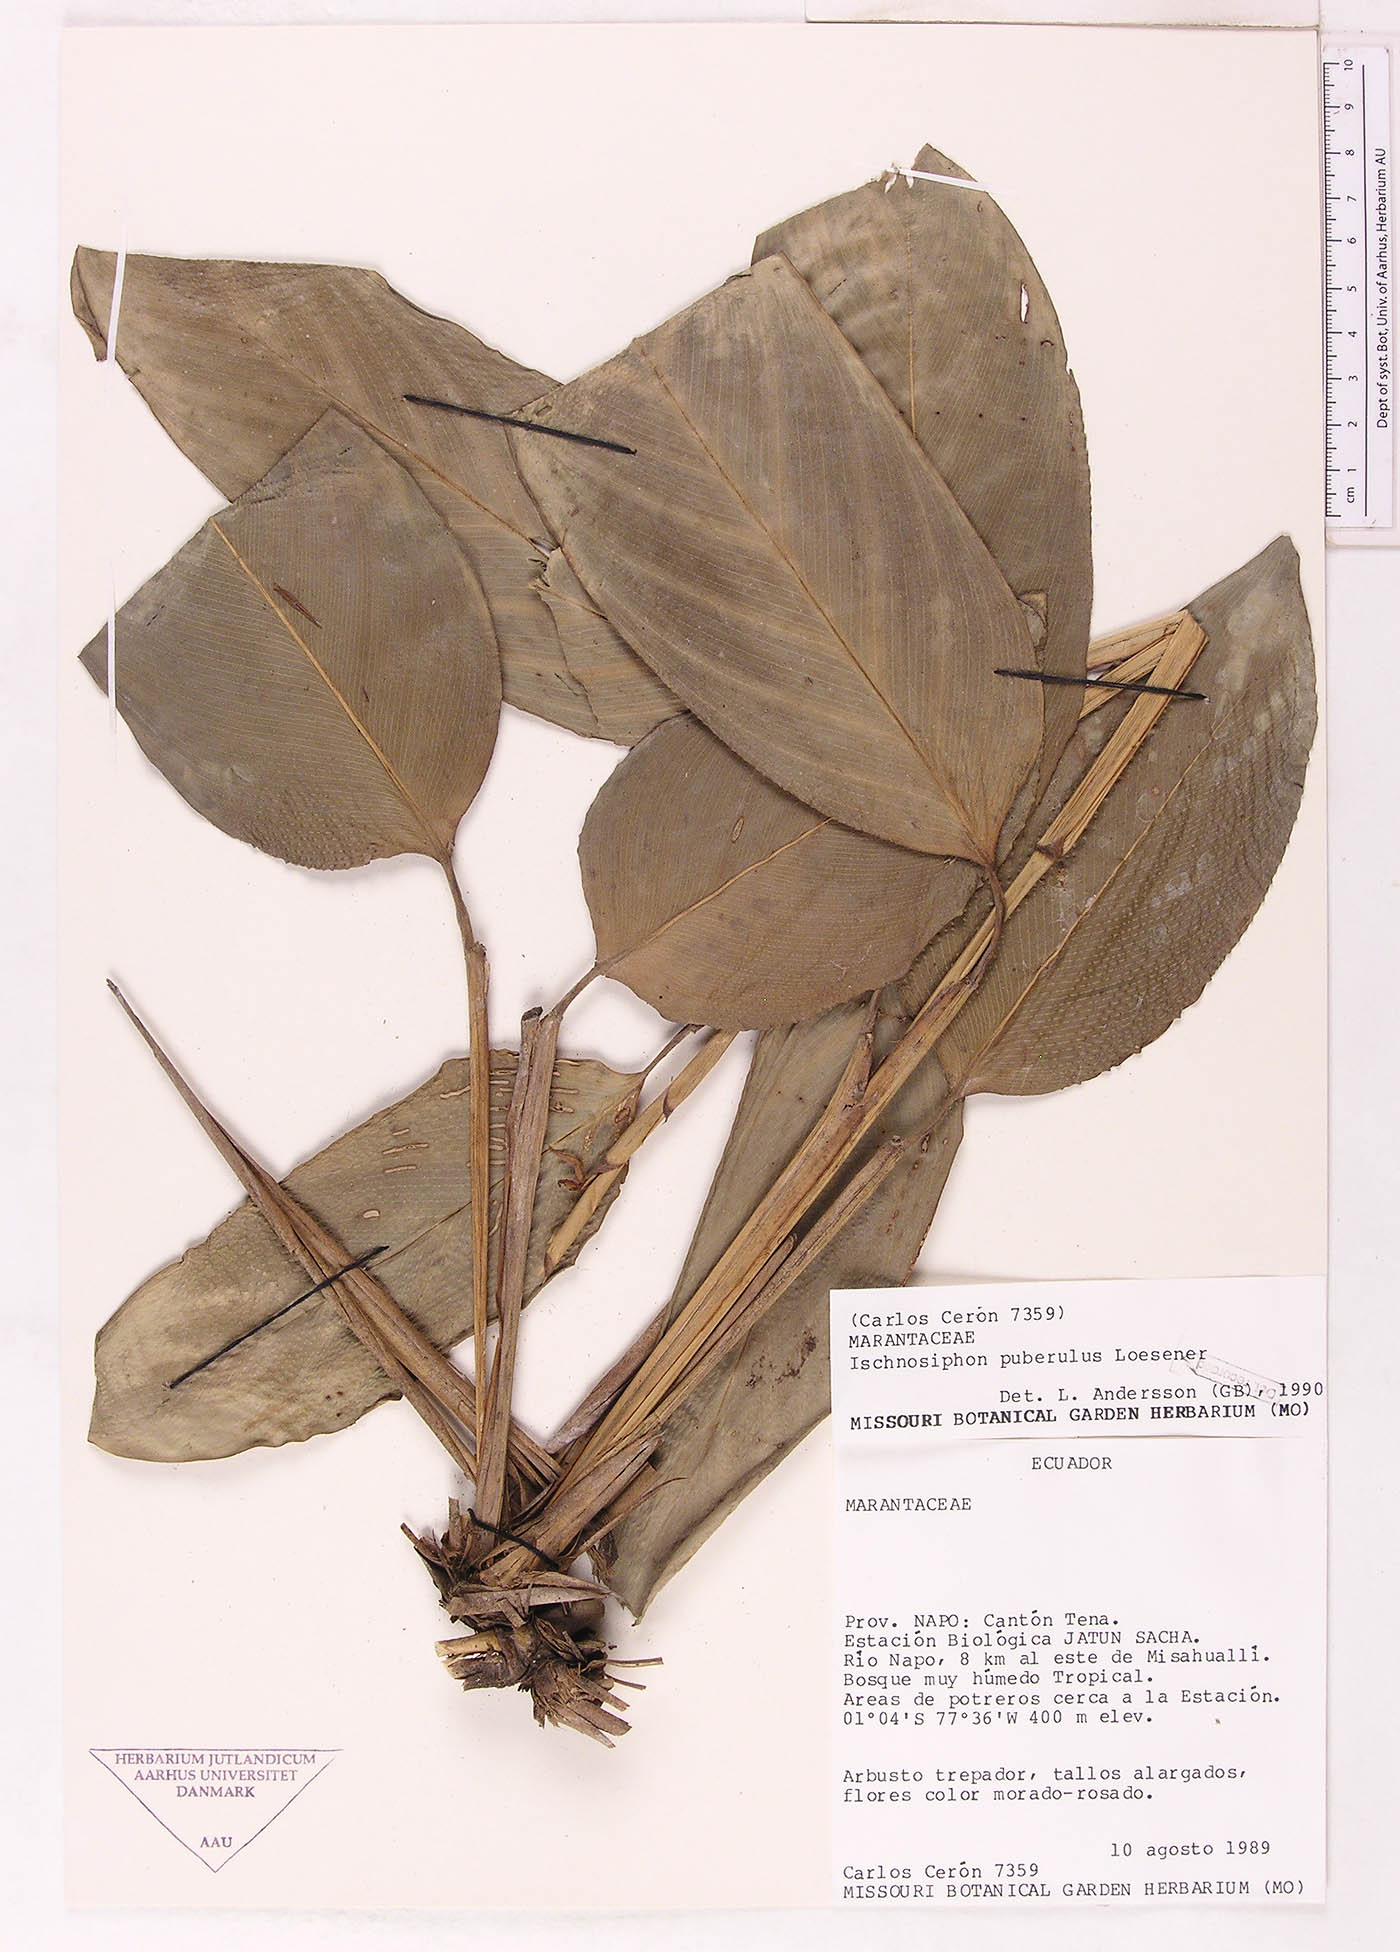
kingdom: Plantae
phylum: Tracheophyta
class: Liliopsida
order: Zingiberales
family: Marantaceae
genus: Ischnosiphon
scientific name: Ischnosiphon puberulus
